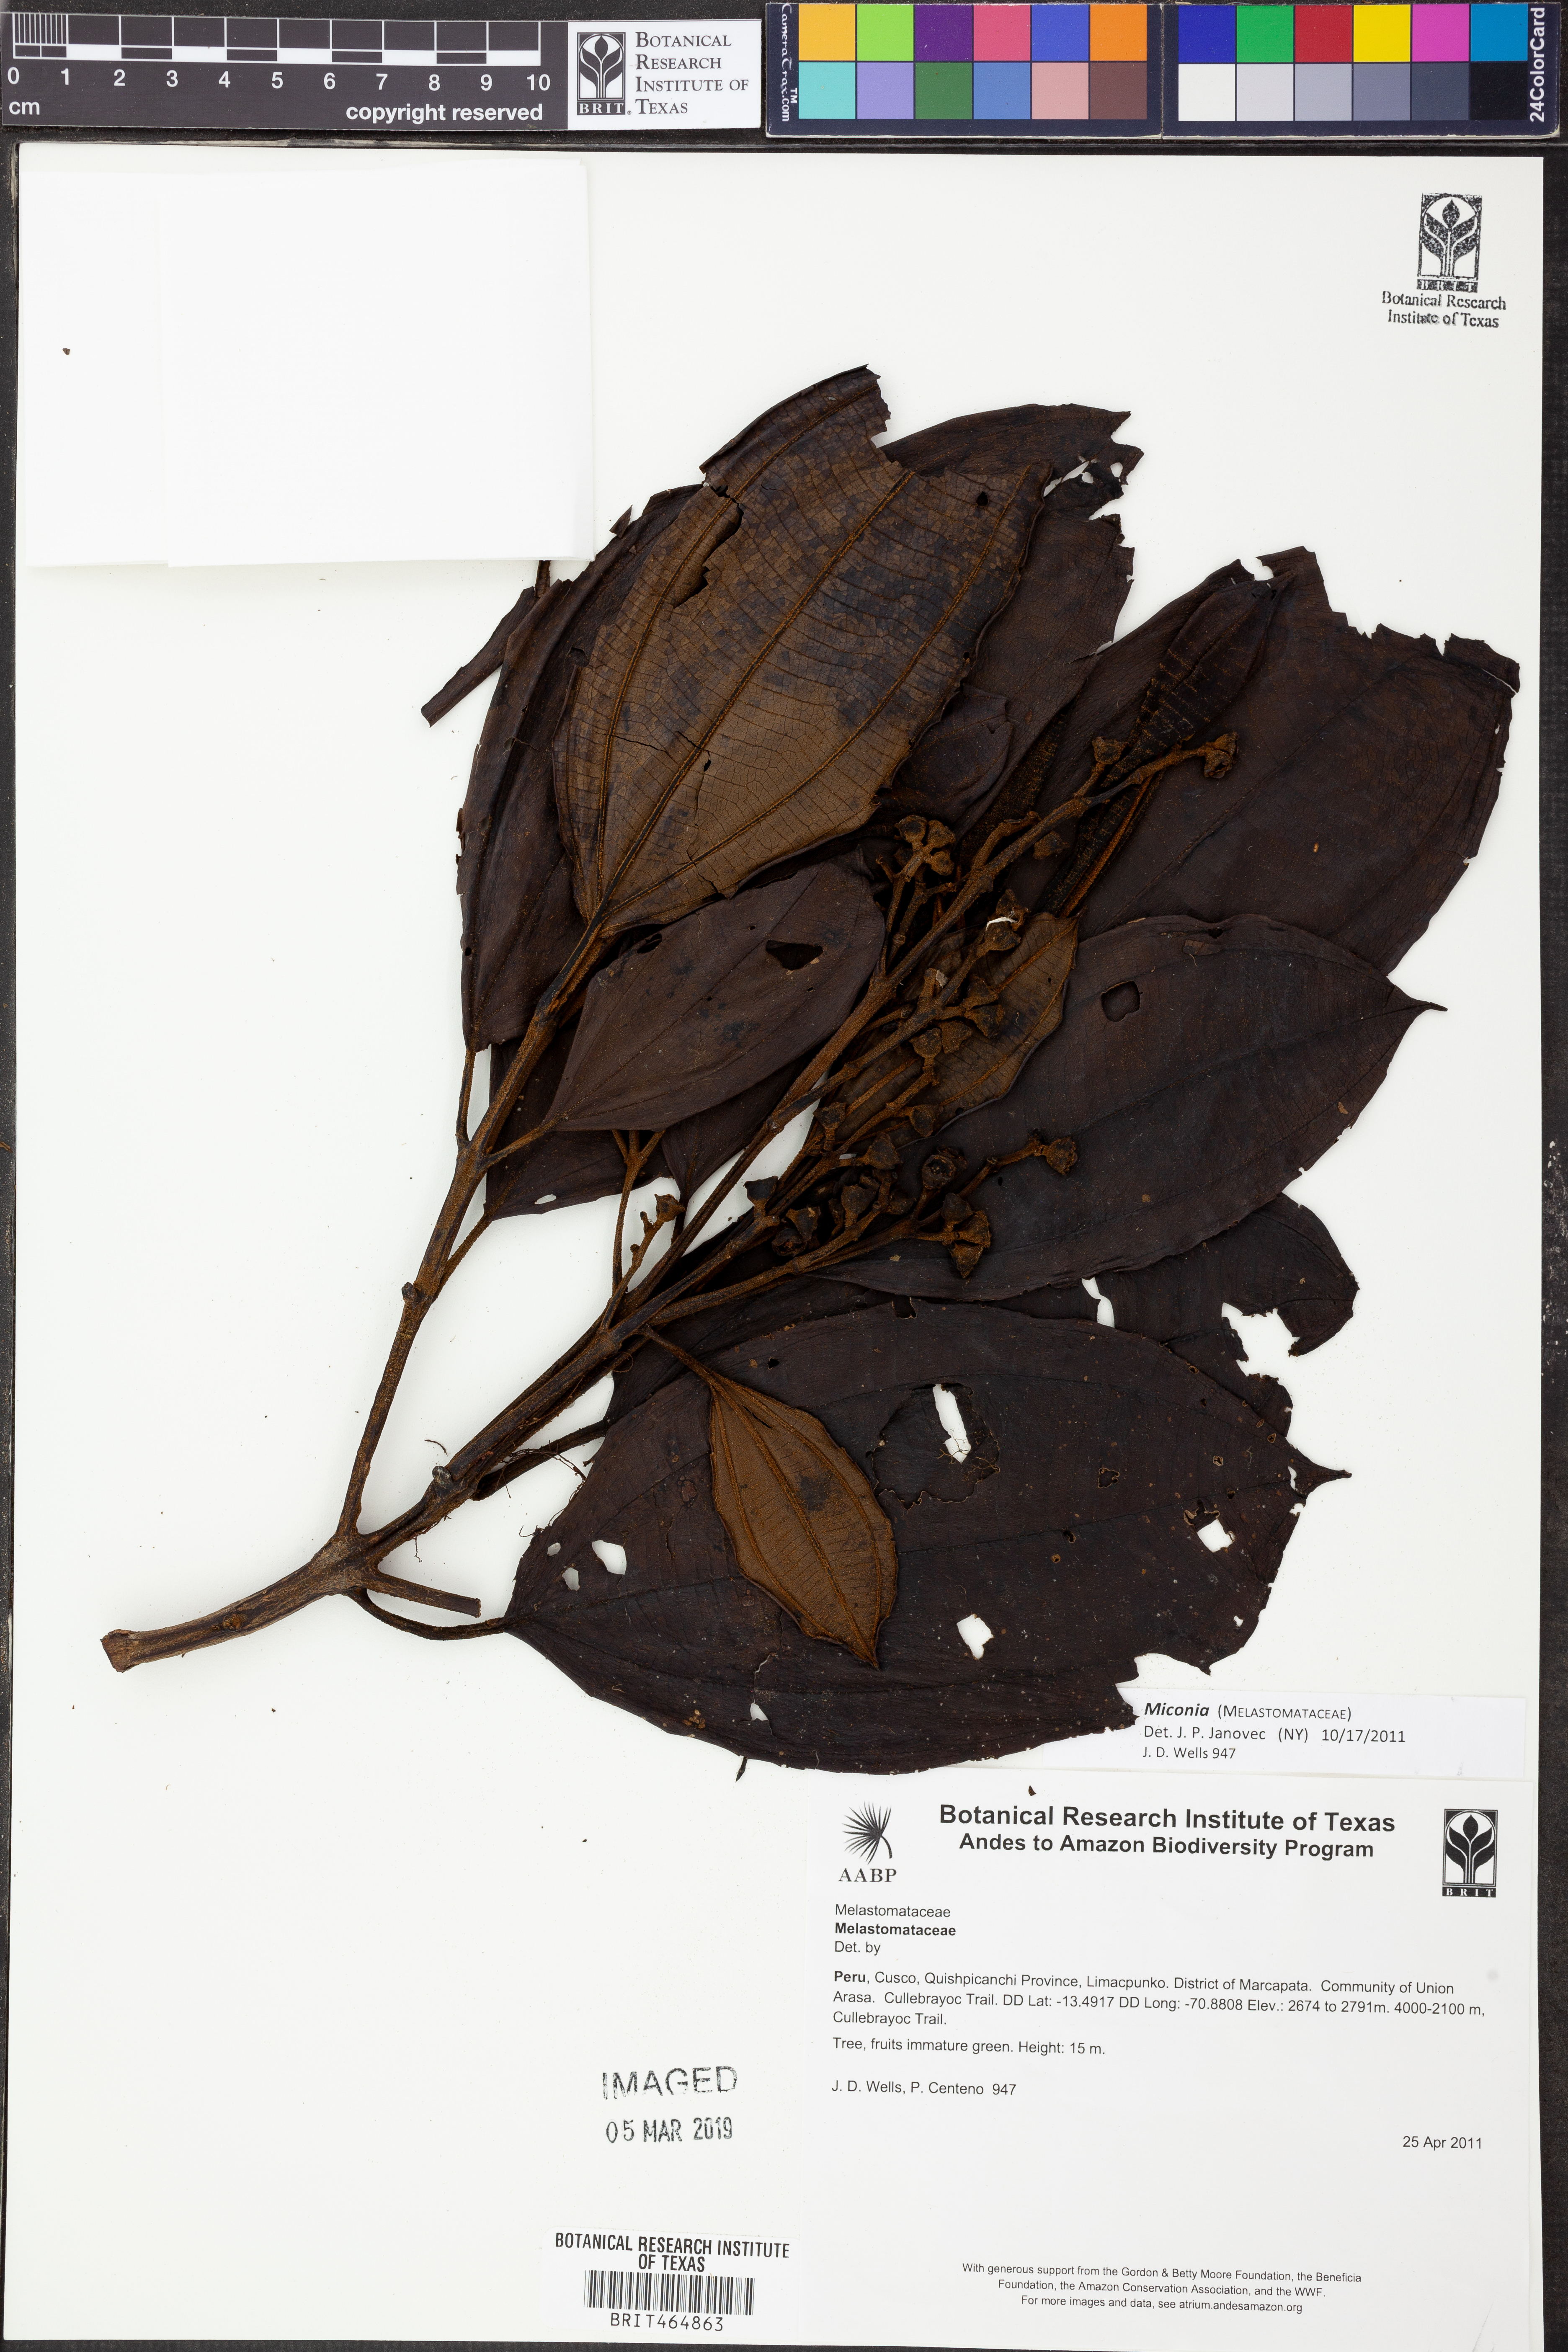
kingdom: Plantae
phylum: Tracheophyta
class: Magnoliopsida
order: Myrtales
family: Melastomataceae
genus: Miconia
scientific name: Miconia
